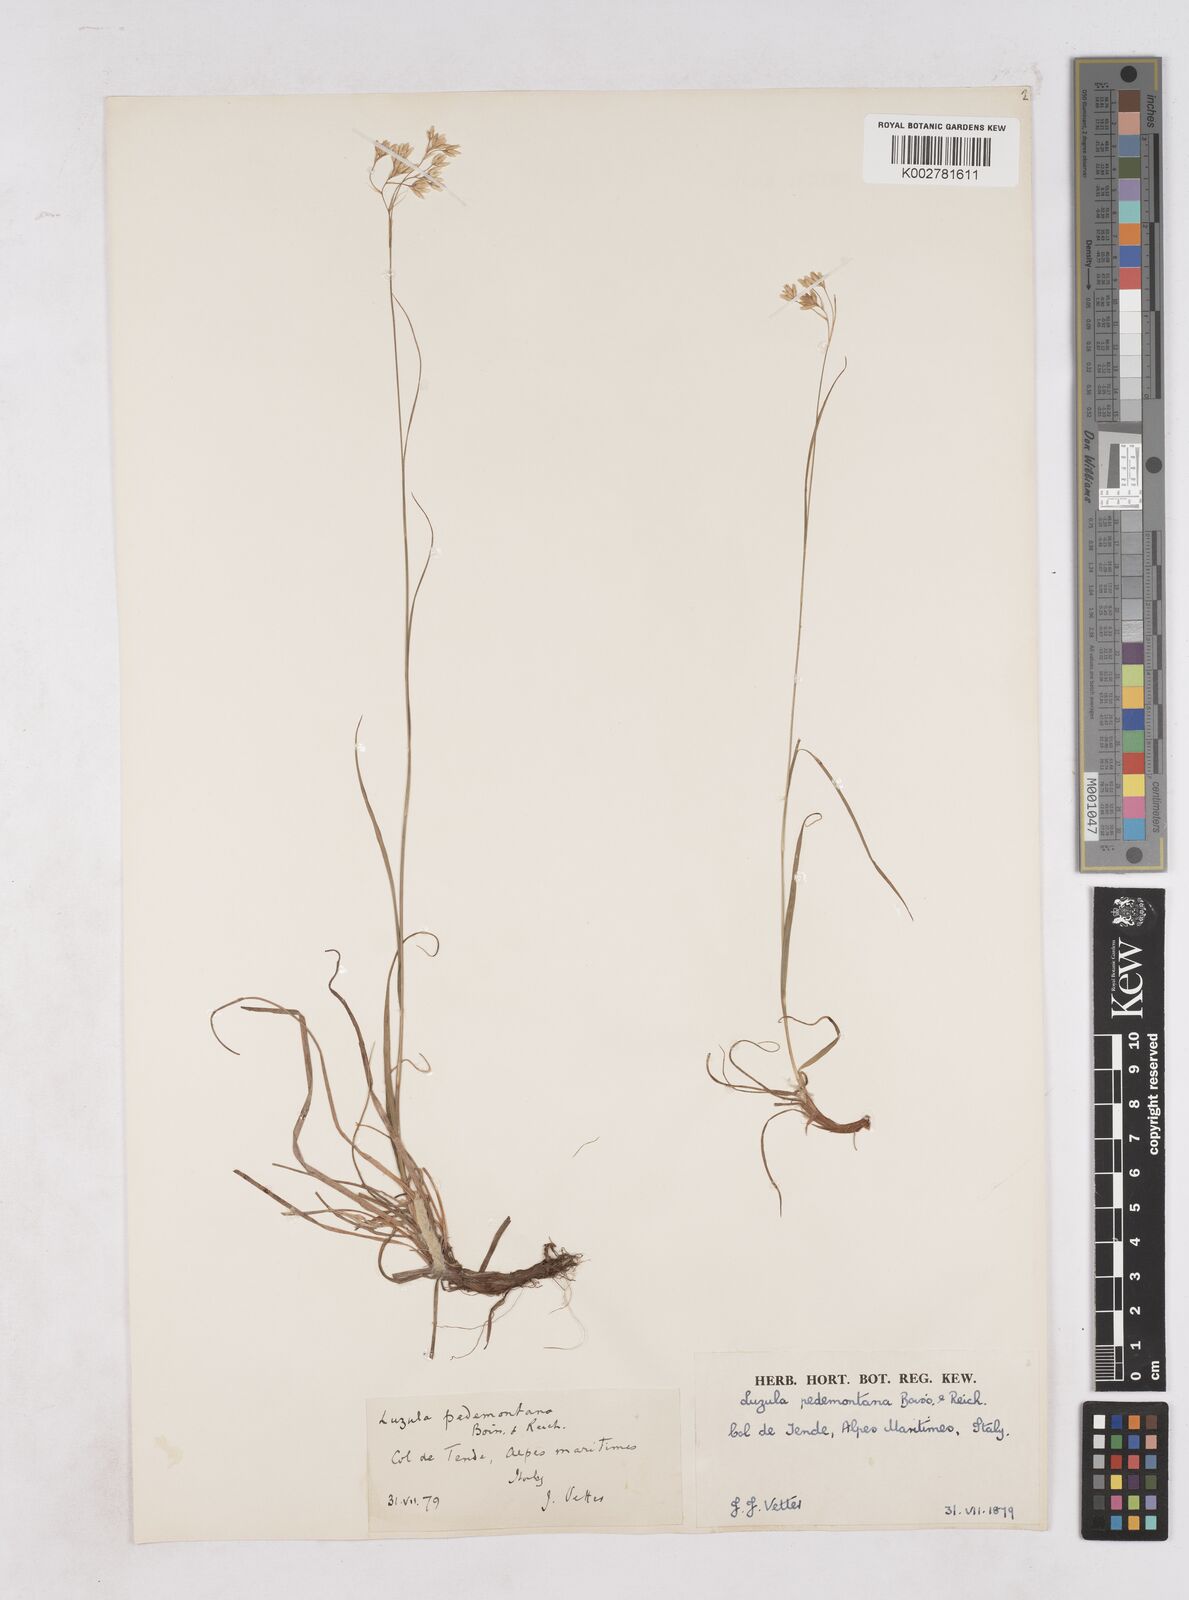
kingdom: Plantae
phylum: Tracheophyta
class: Liliopsida
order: Poales
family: Juncaceae
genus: Luzula
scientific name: Luzula pedemontana
